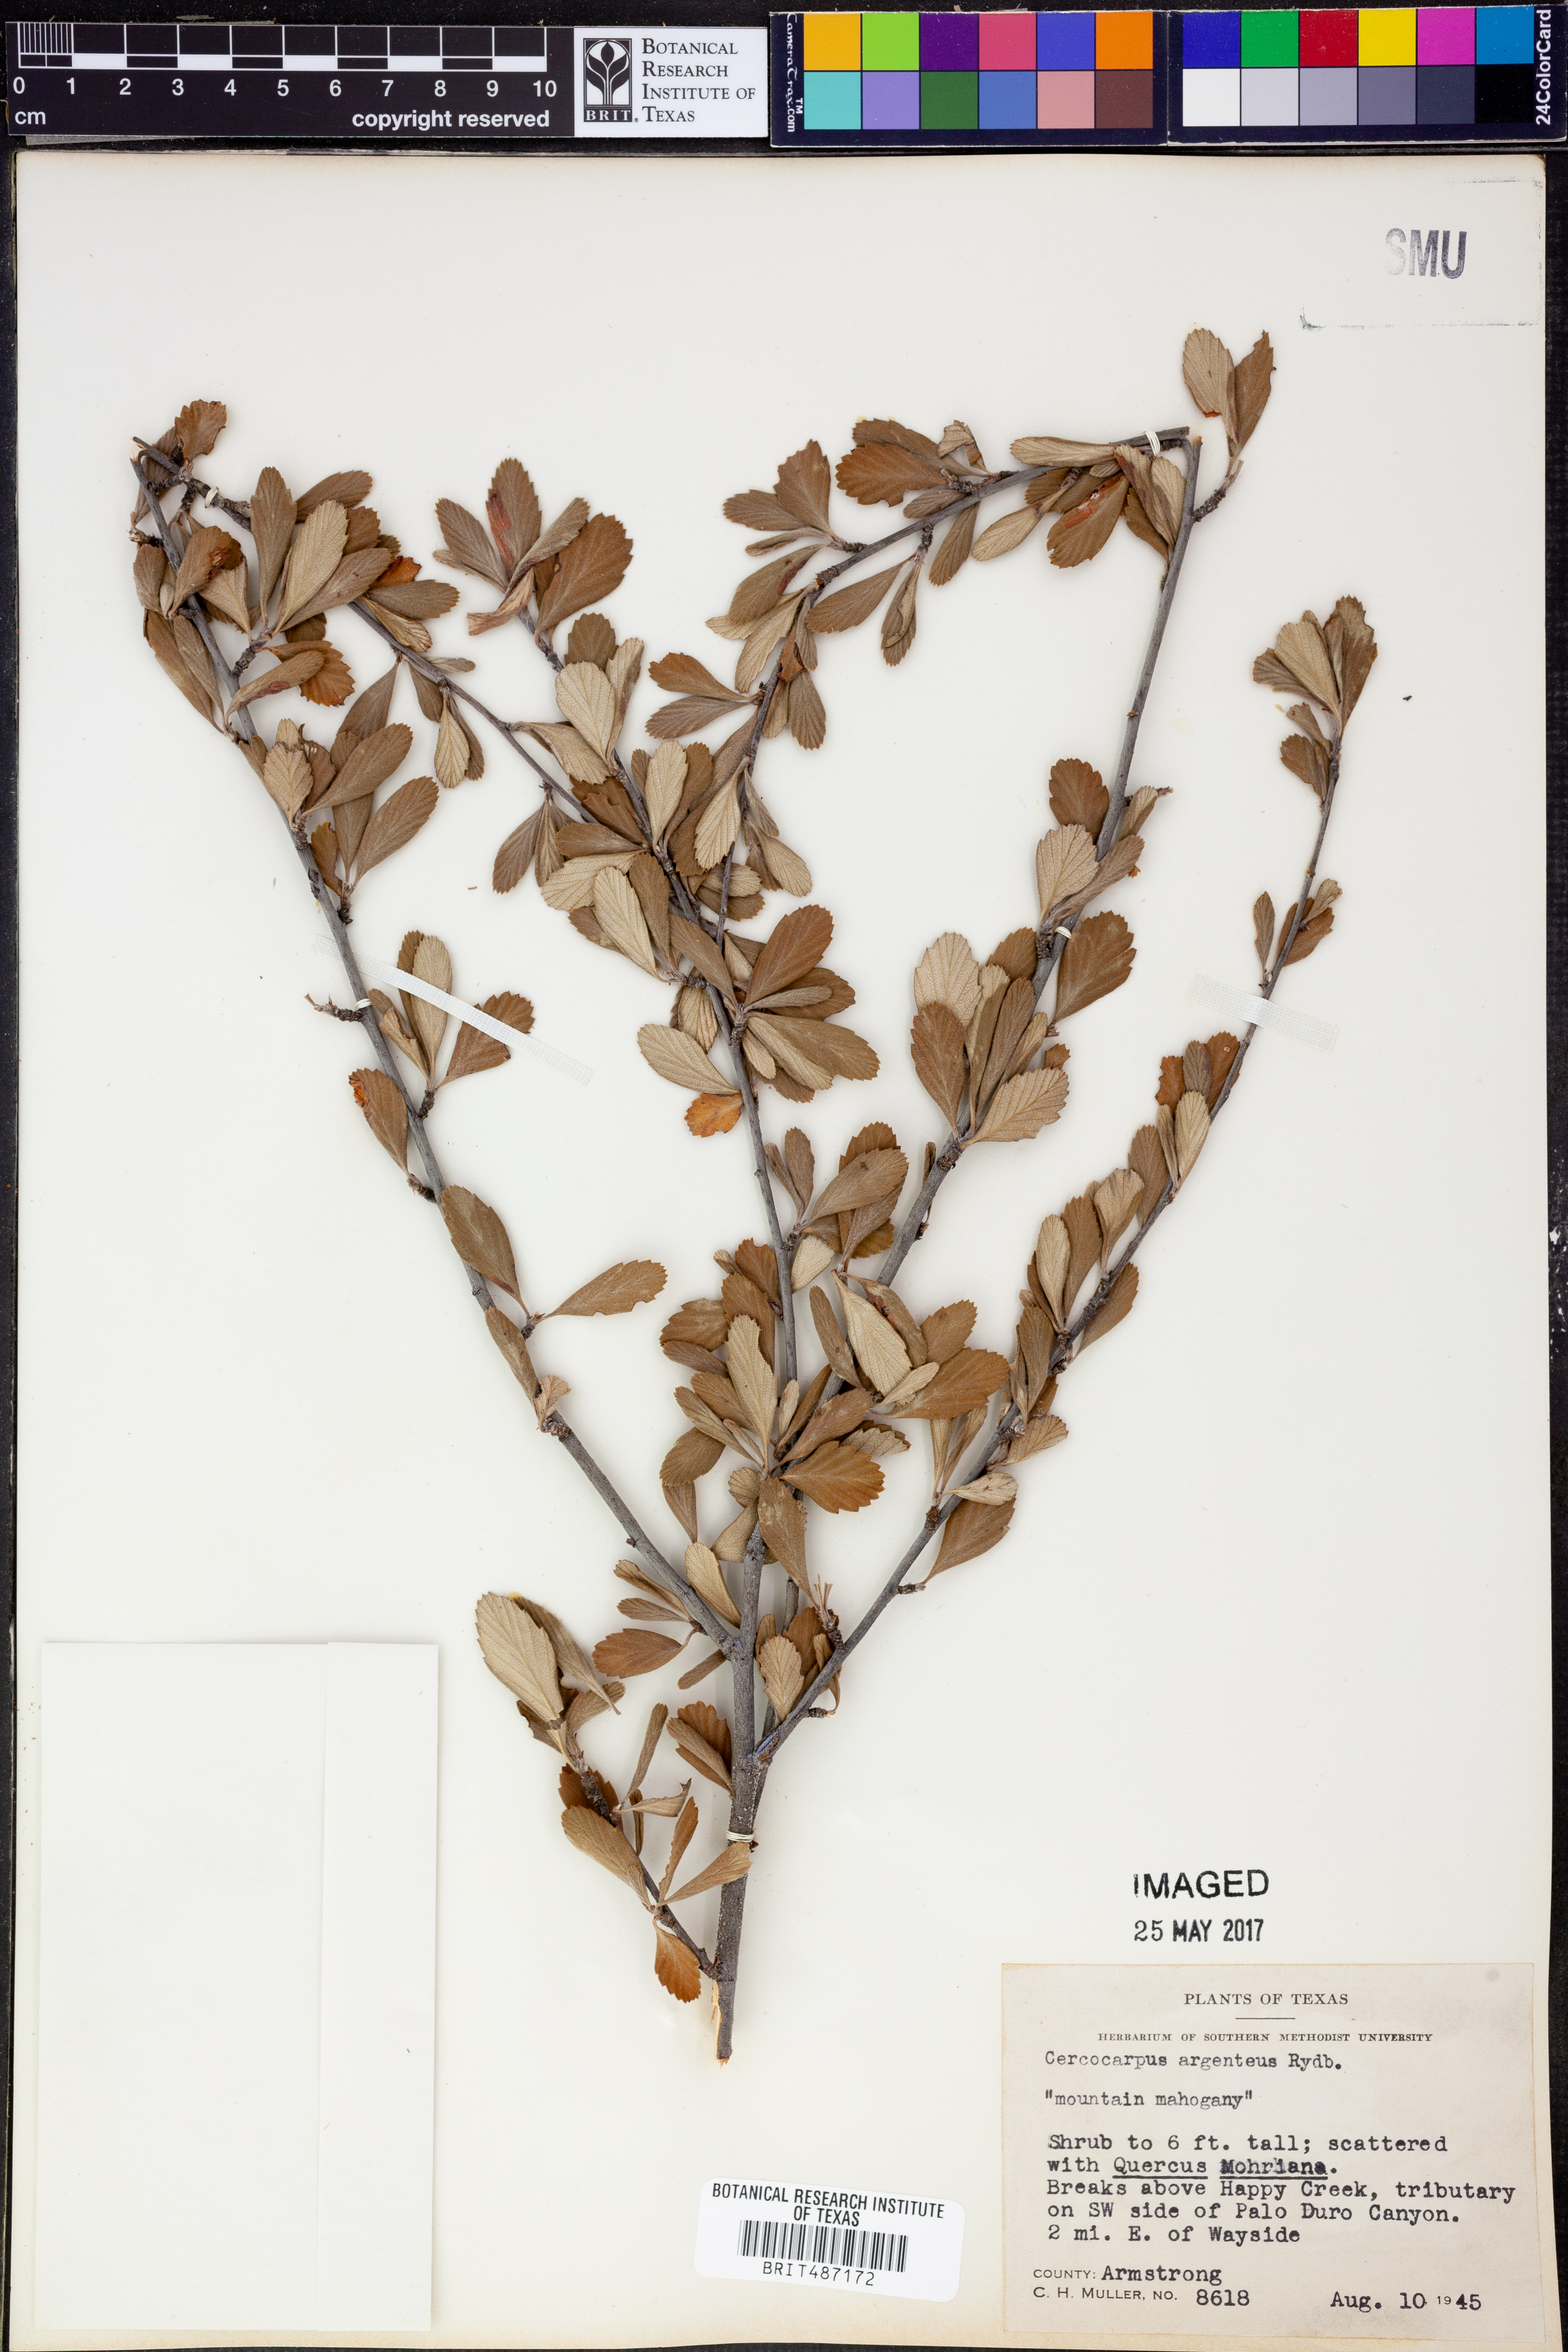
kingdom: Plantae
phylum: Tracheophyta
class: Magnoliopsida
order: Rosales
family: Rosaceae
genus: Cercocarpus
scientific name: Cercocarpus intricatus
